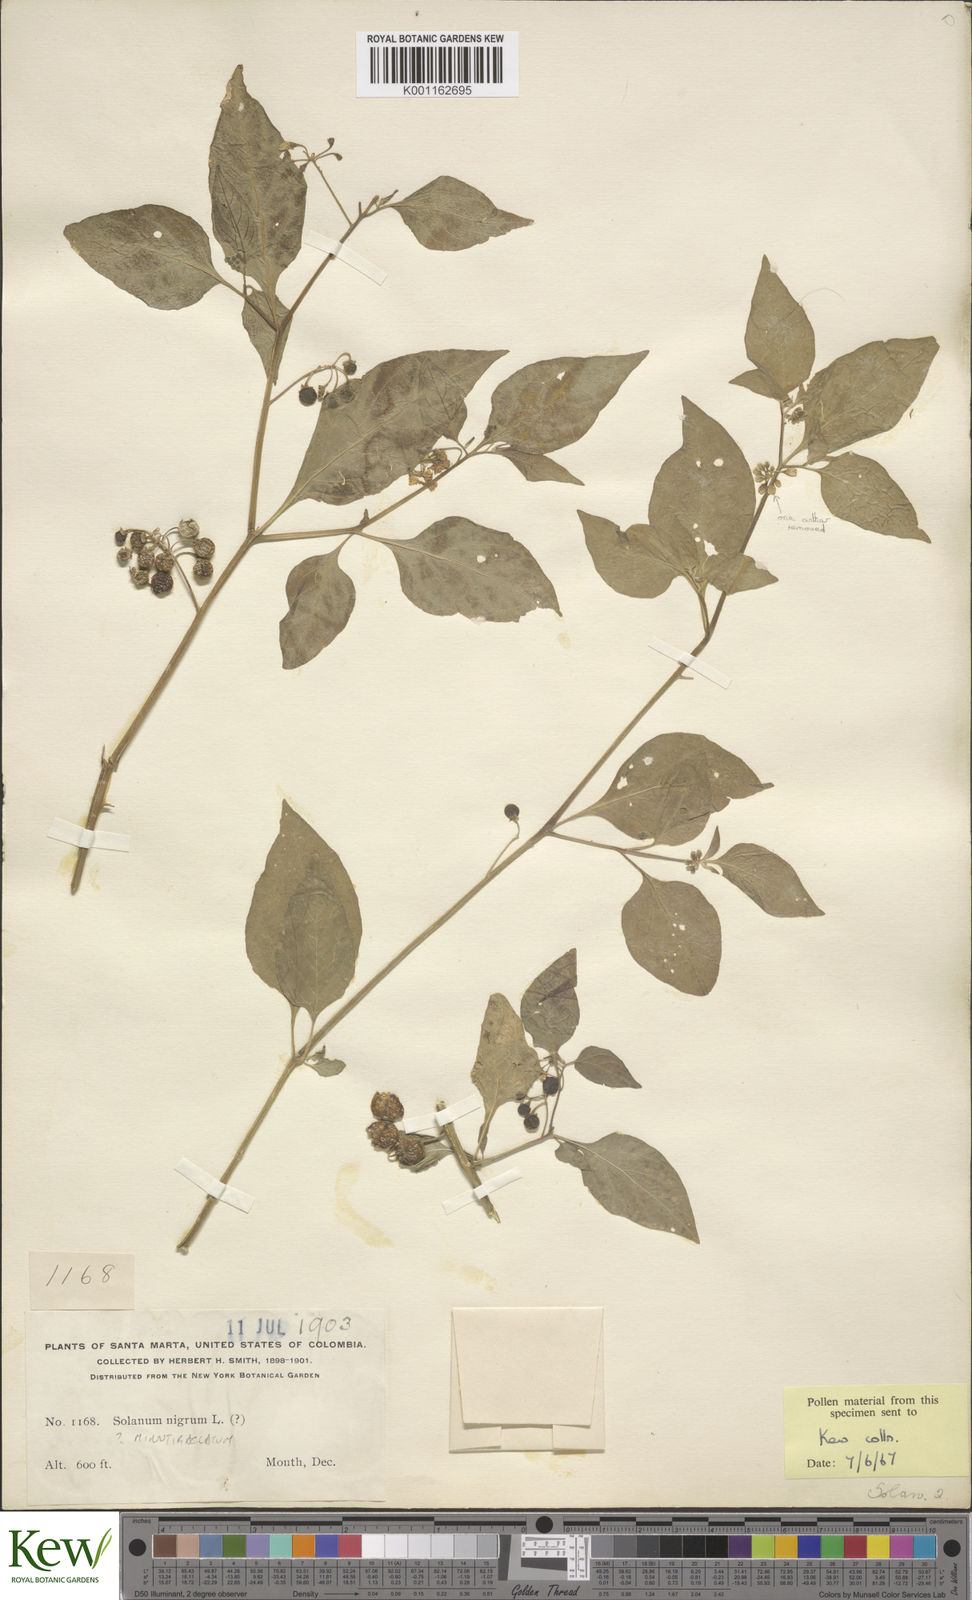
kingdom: Plantae
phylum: Tracheophyta
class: Magnoliopsida
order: Solanales
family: Solanaceae
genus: Solanum
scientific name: Solanum nigrescens
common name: Divine nightshade
